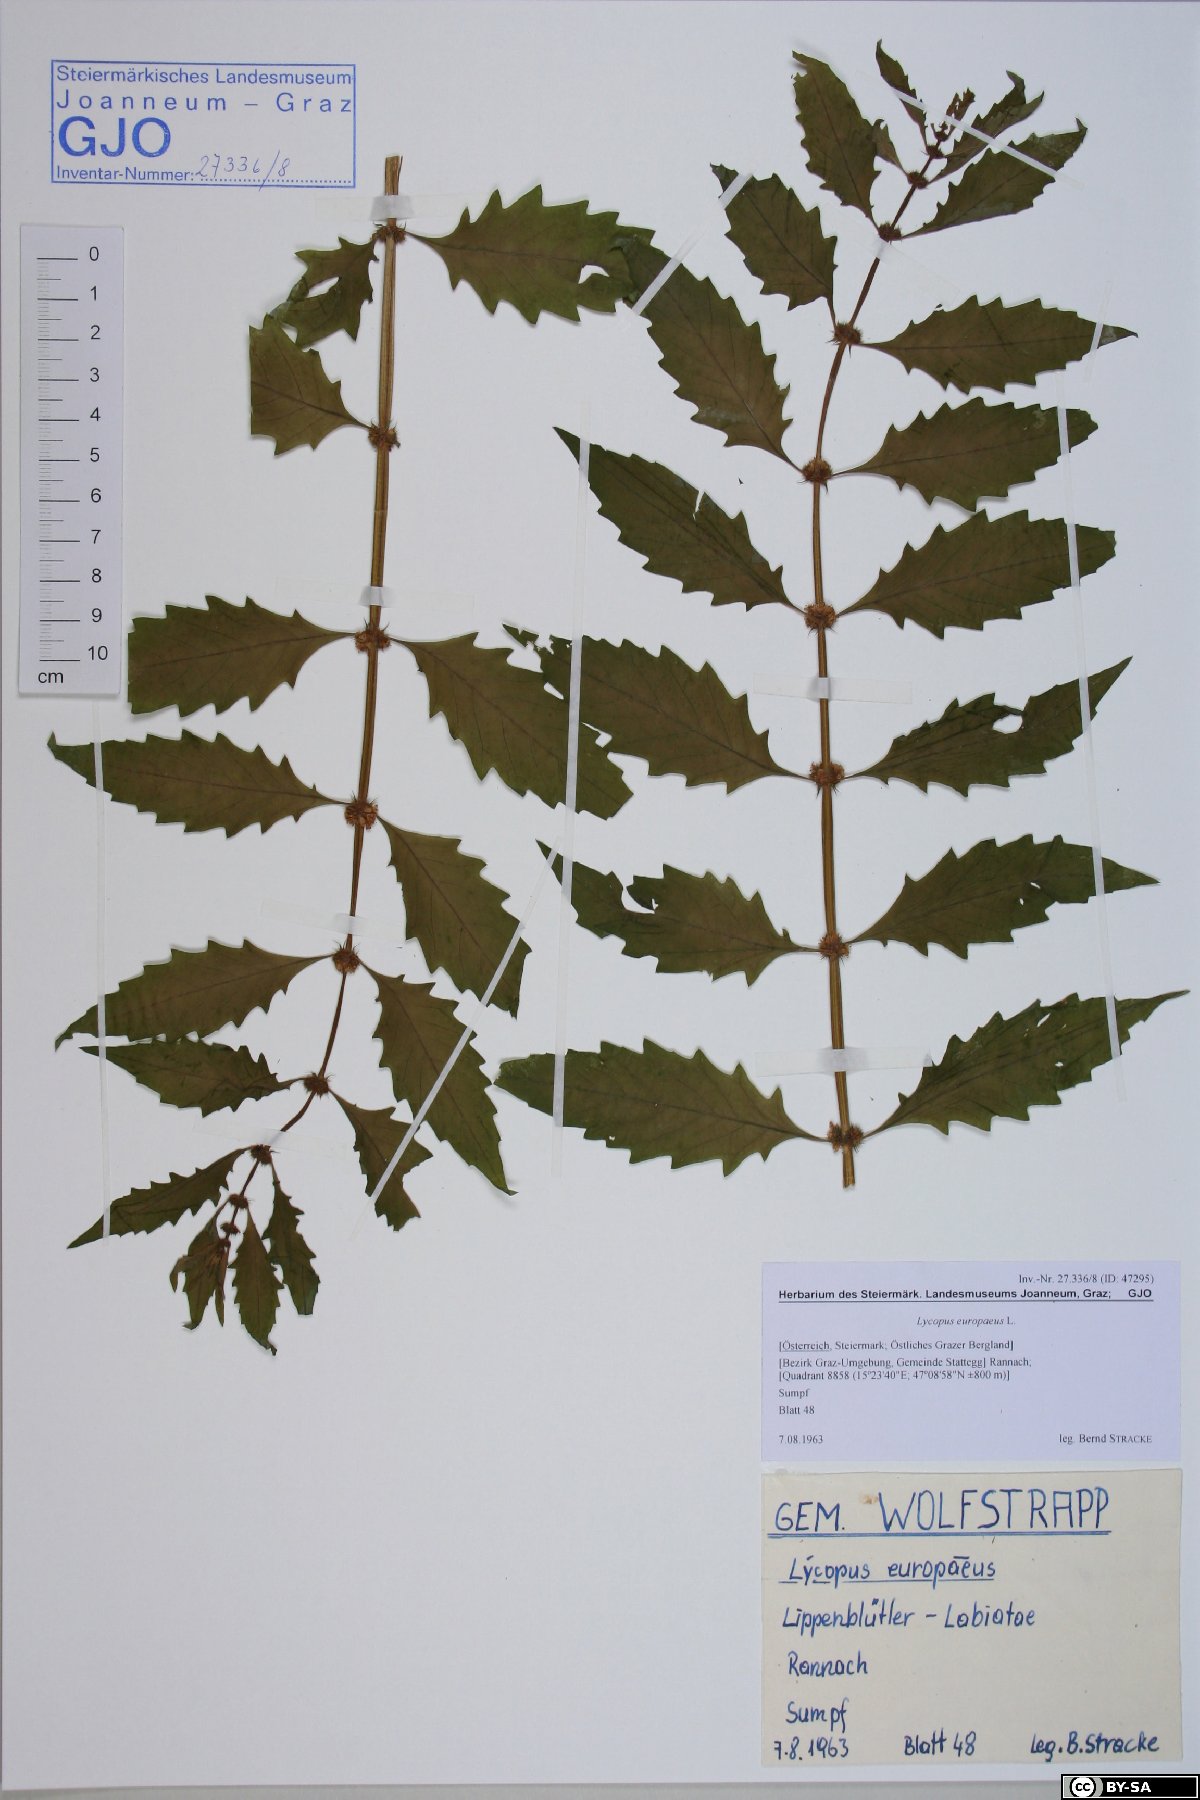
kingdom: Plantae
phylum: Tracheophyta
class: Magnoliopsida
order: Lamiales
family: Lamiaceae
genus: Lycopus
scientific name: Lycopus europaeus
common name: European bugleweed
